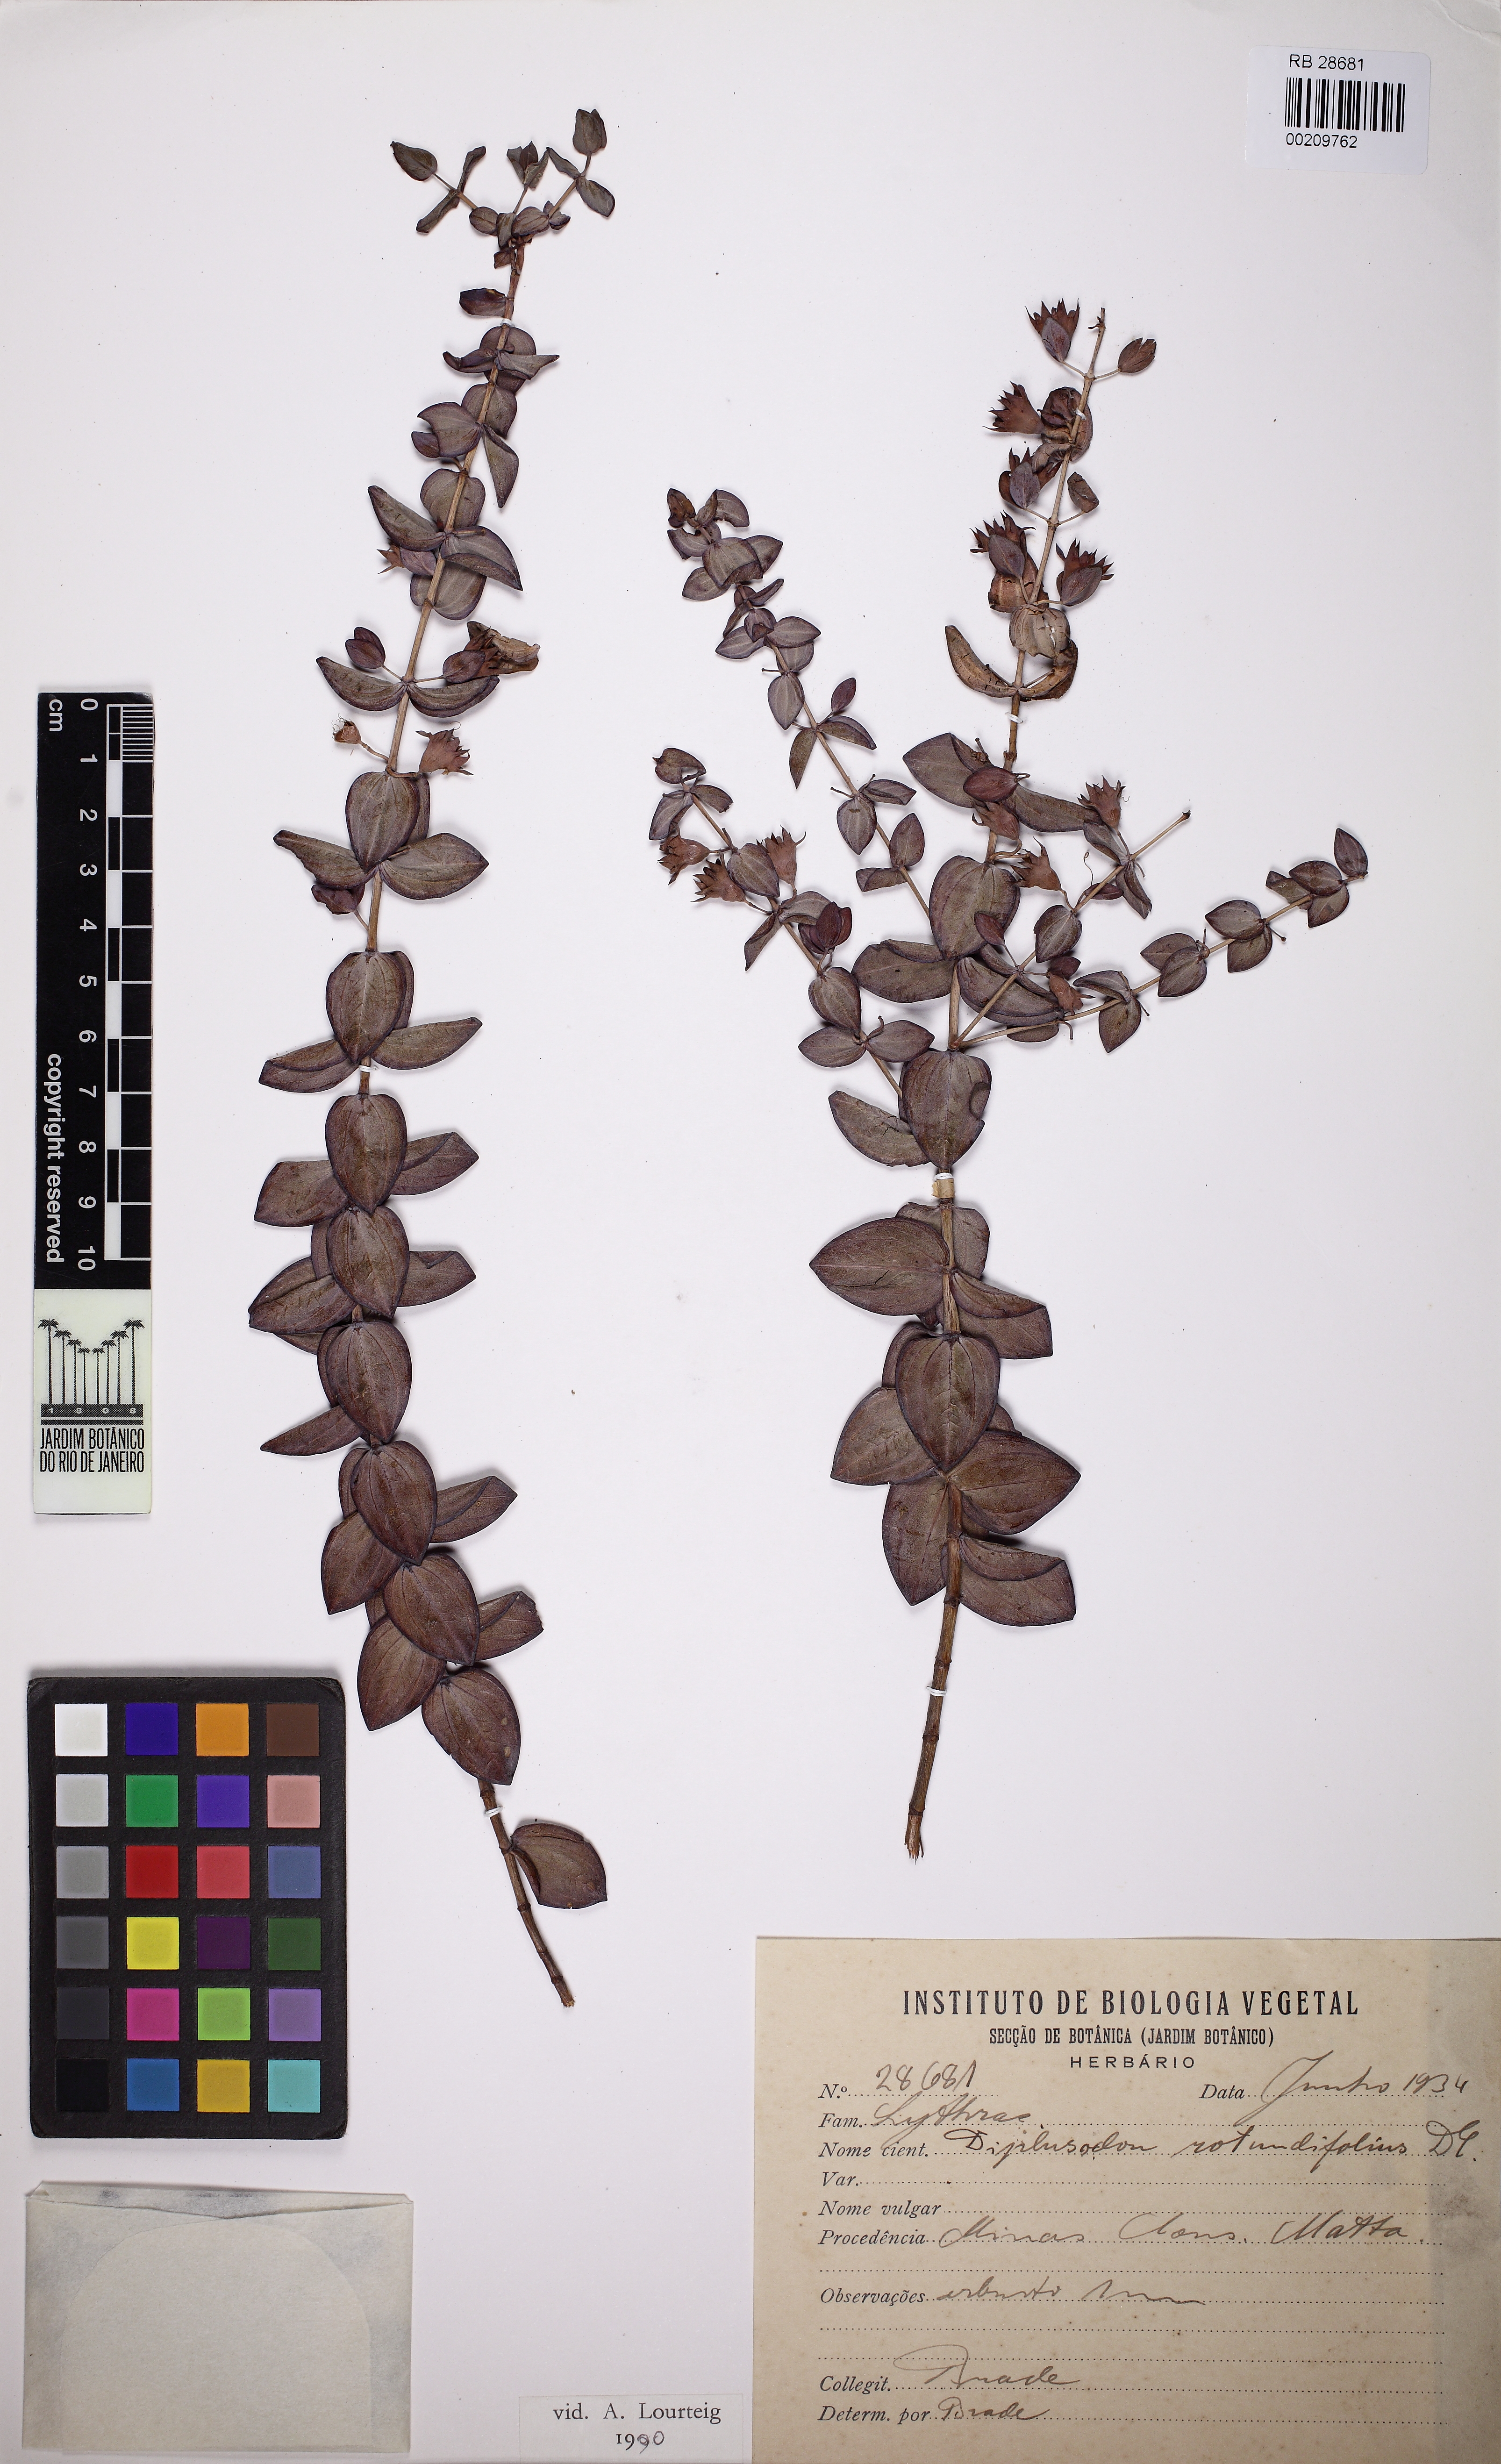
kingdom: Plantae
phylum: Tracheophyta
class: Magnoliopsida
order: Myrtales
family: Lythraceae
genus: Diplusodon
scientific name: Diplusodon rotundifolius
